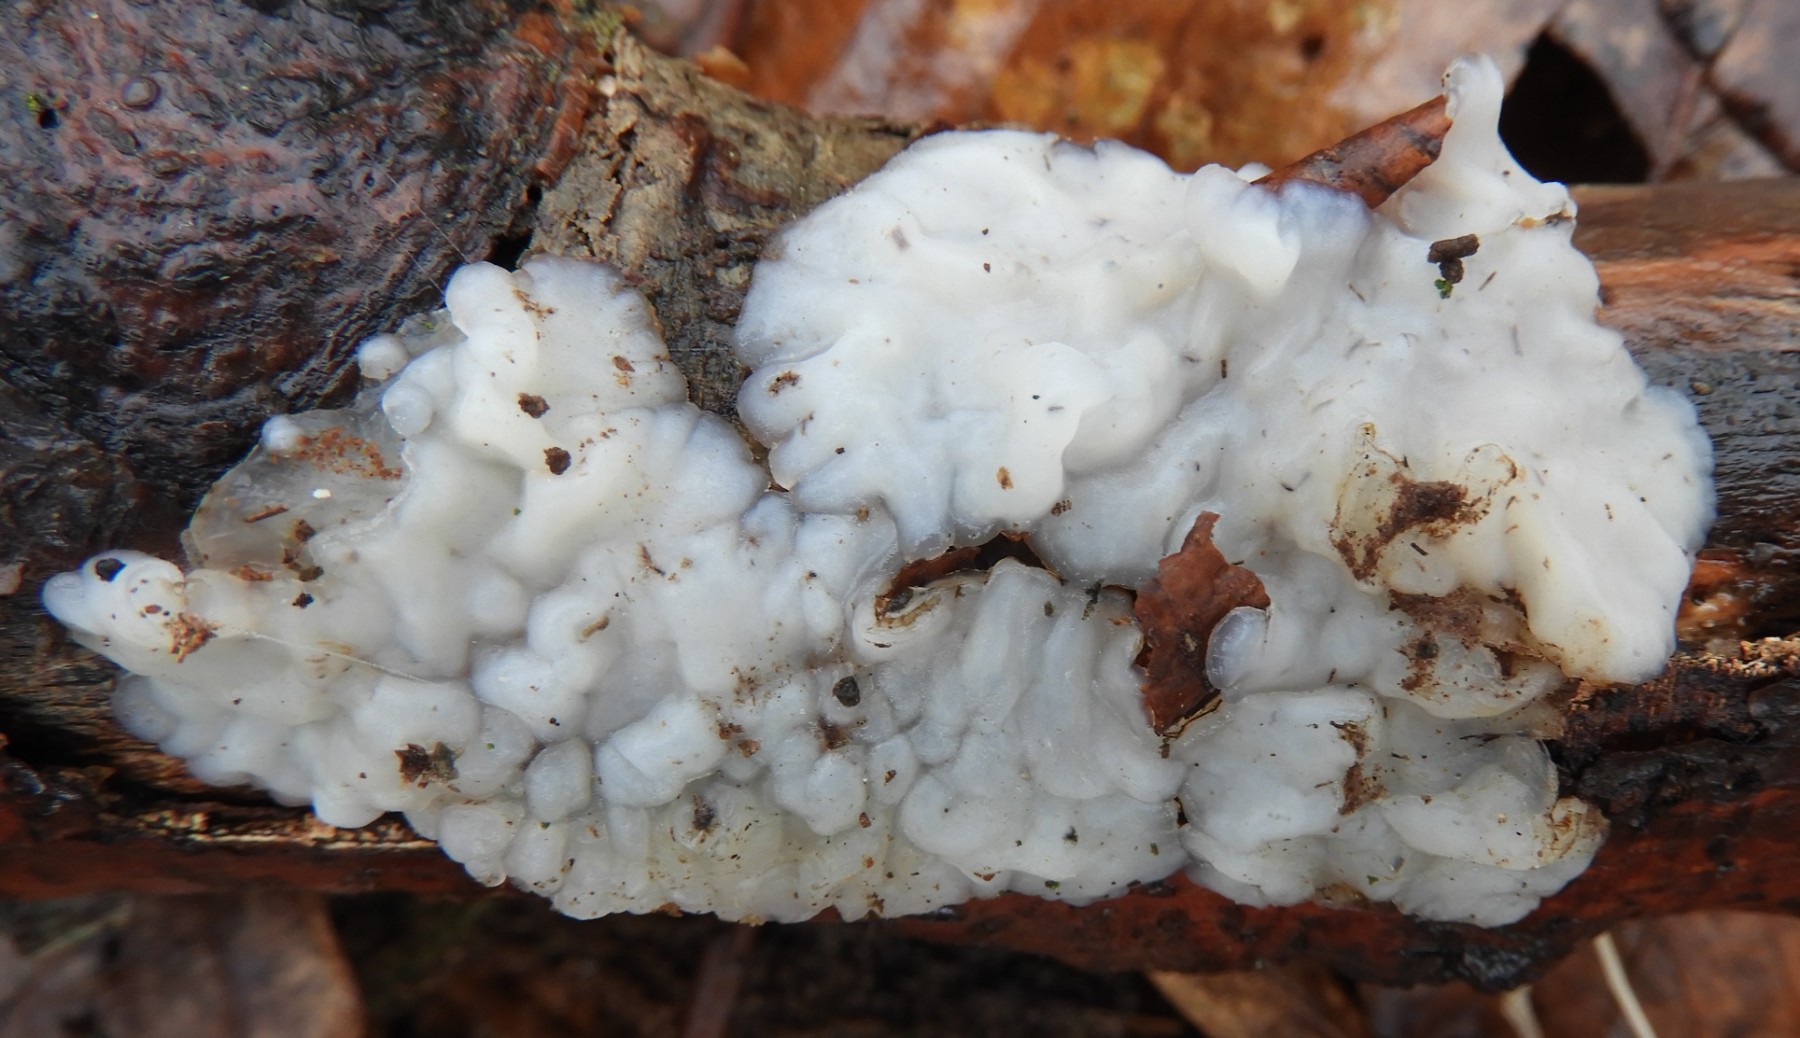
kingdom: Fungi
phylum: Basidiomycota
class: Agaricomycetes
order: Auriculariales
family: Auriculariaceae
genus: Exidia
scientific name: Exidia thuretiana
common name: hvidlig bævretop
